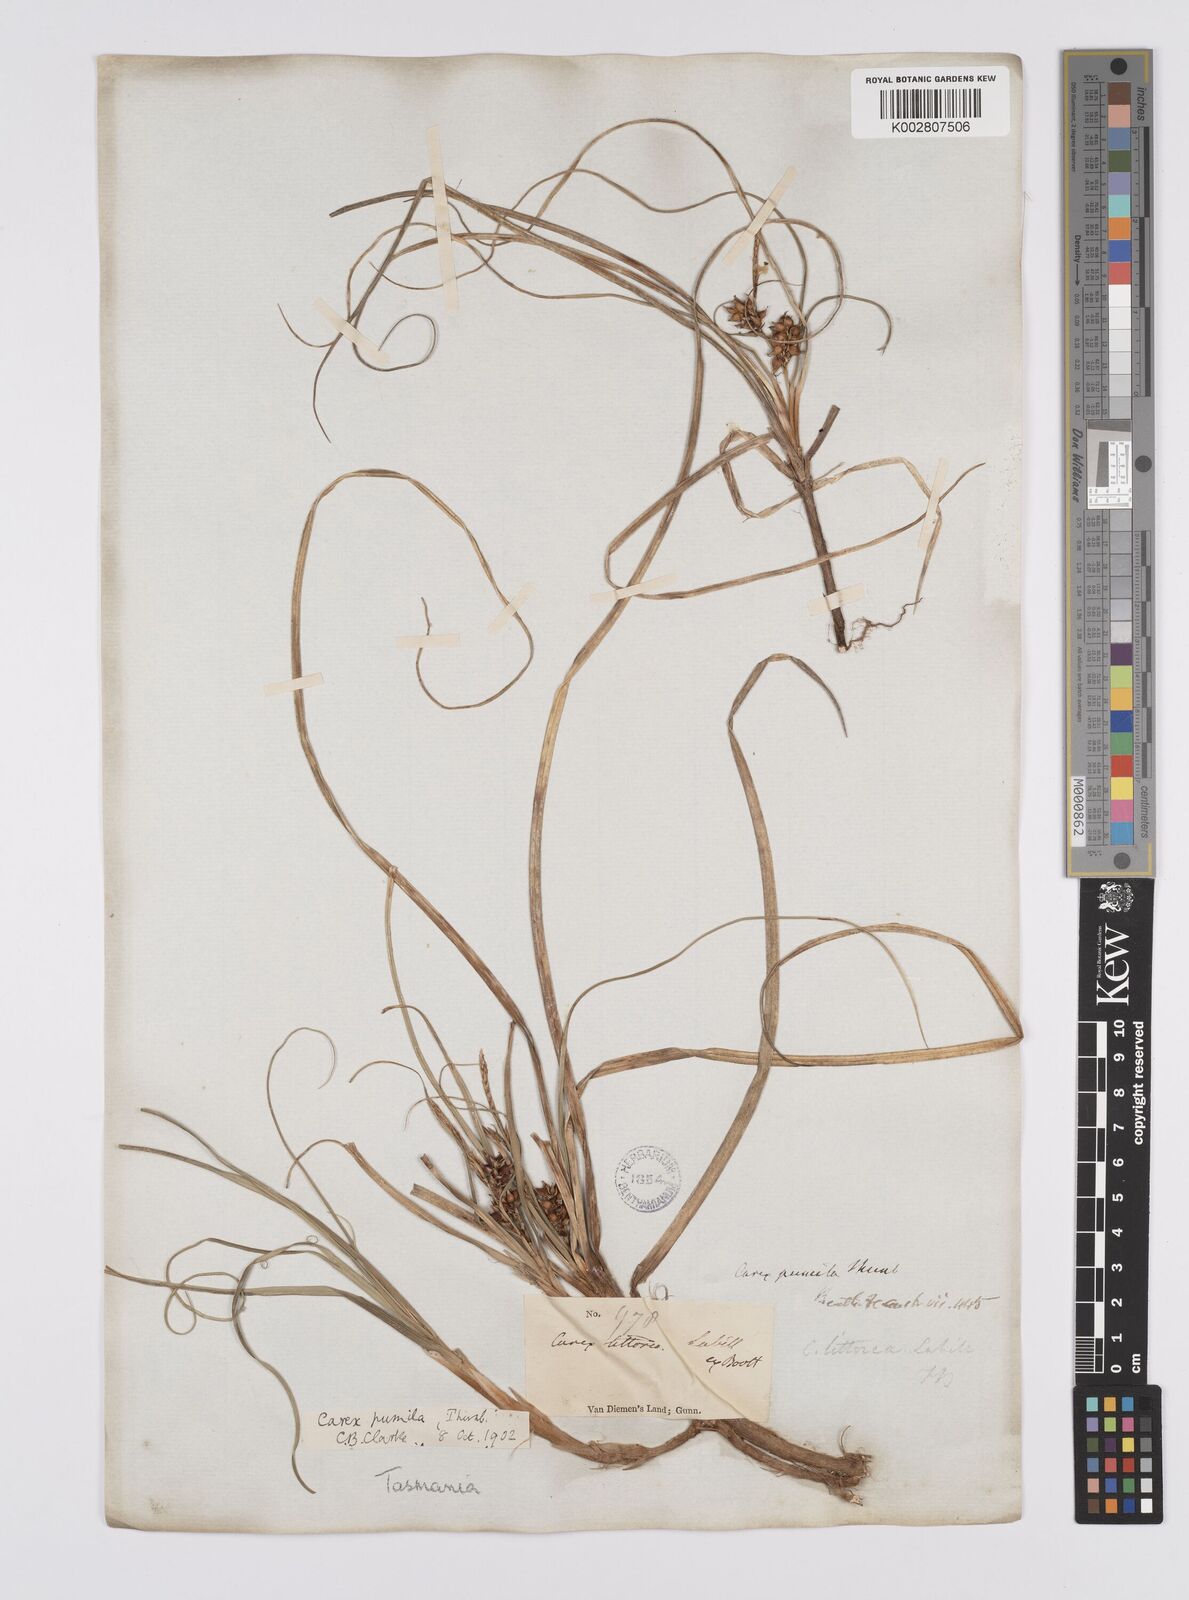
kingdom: Plantae
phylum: Tracheophyta
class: Liliopsida
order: Poales
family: Cyperaceae
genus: Carex
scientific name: Carex pumila
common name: Dwarf sedge
